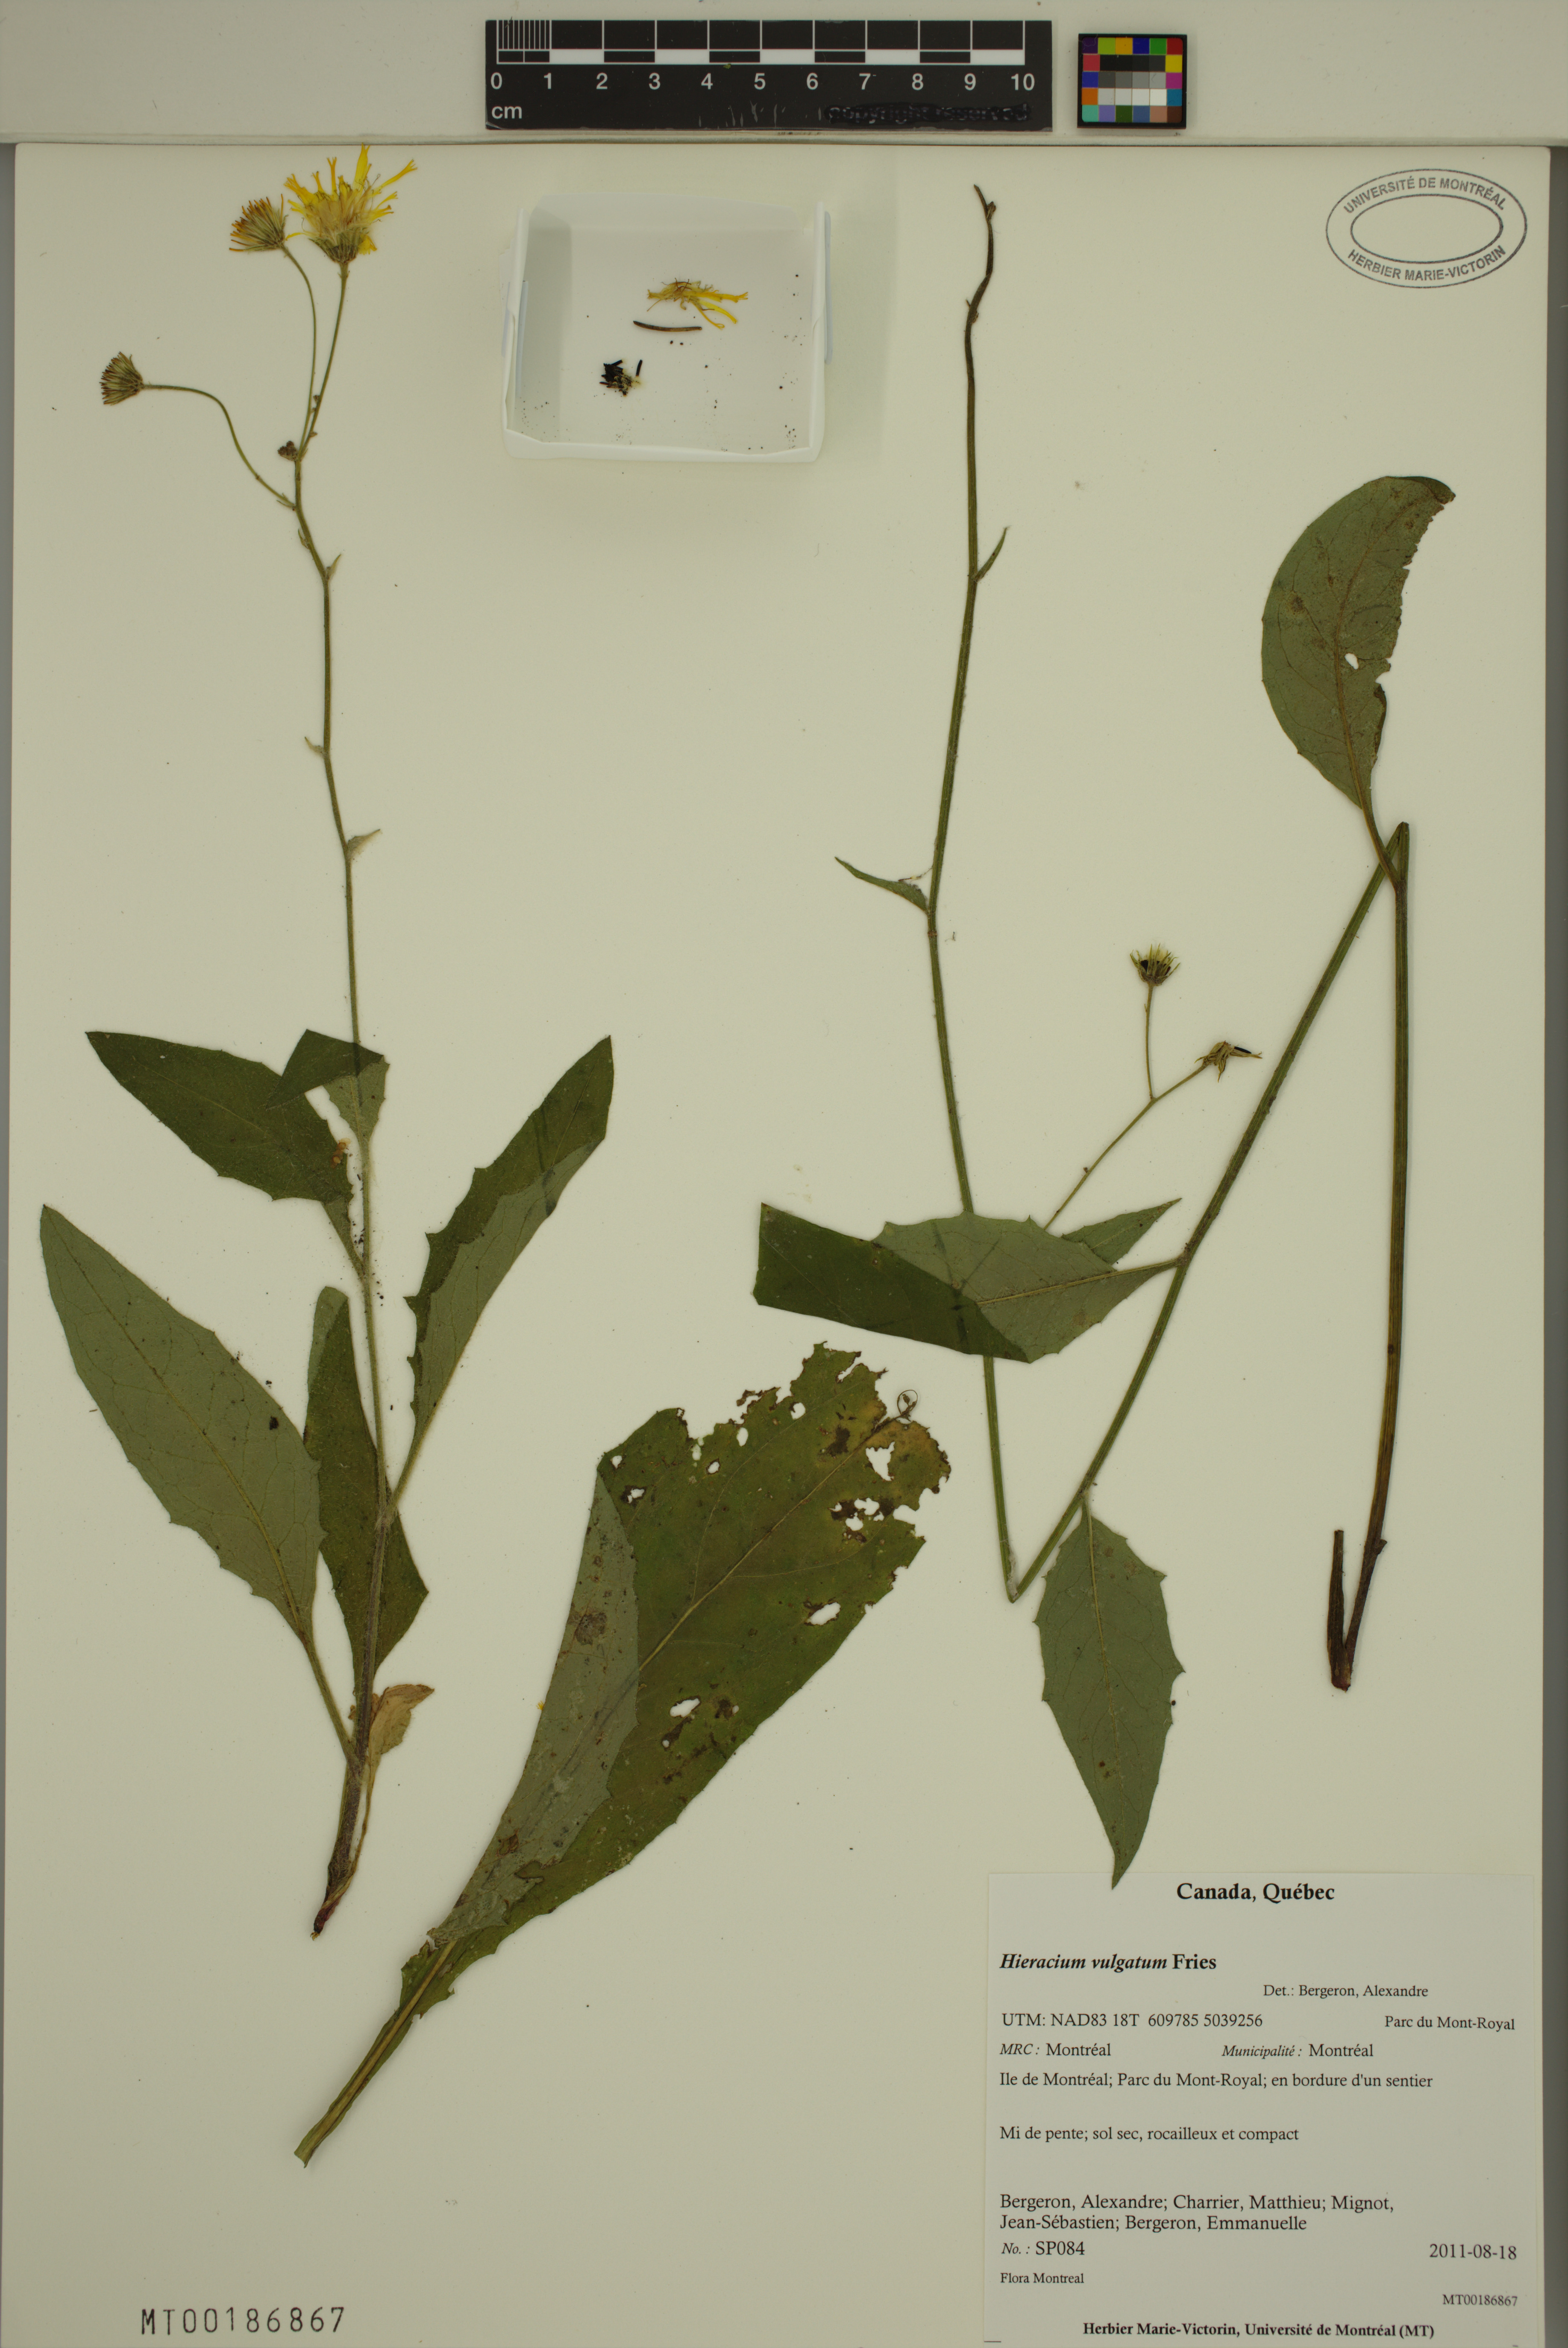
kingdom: Plantae
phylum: Tracheophyta
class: Magnoliopsida
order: Asterales
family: Asteraceae
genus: Hieracium
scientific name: Hieracium lachenalii
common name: Common hawkweed
